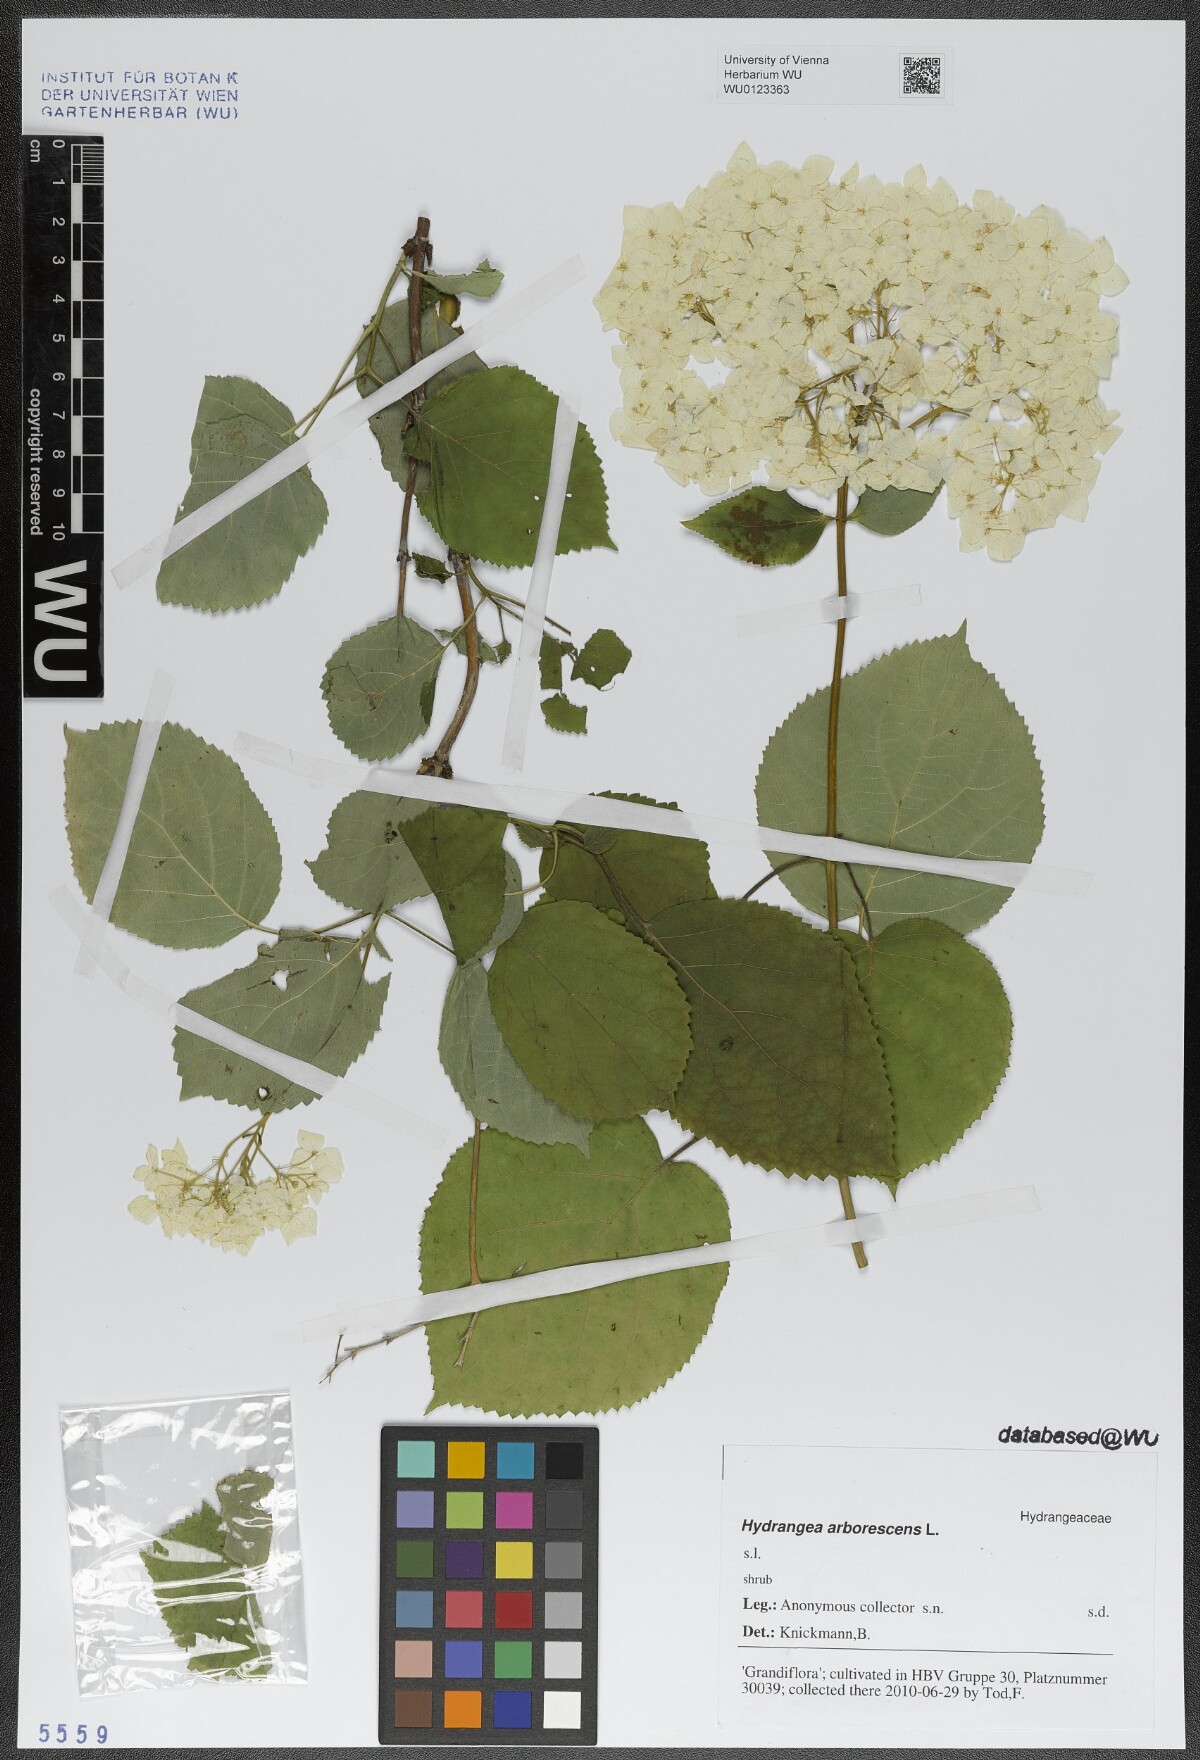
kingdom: Plantae
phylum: Tracheophyta
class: Magnoliopsida
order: Cornales
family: Hydrangeaceae
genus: Hydrangea
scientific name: Hydrangea arborescens
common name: Sevenbark
